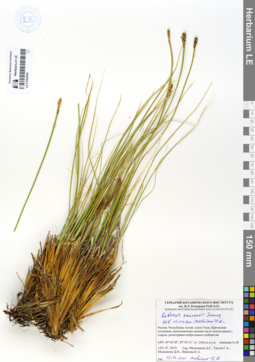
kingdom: Plantae
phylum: Tracheophyta
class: Liliopsida
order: Poales
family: Cyperaceae
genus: Carex
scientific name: Carex borealipolaris
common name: Siberian bog sedge
